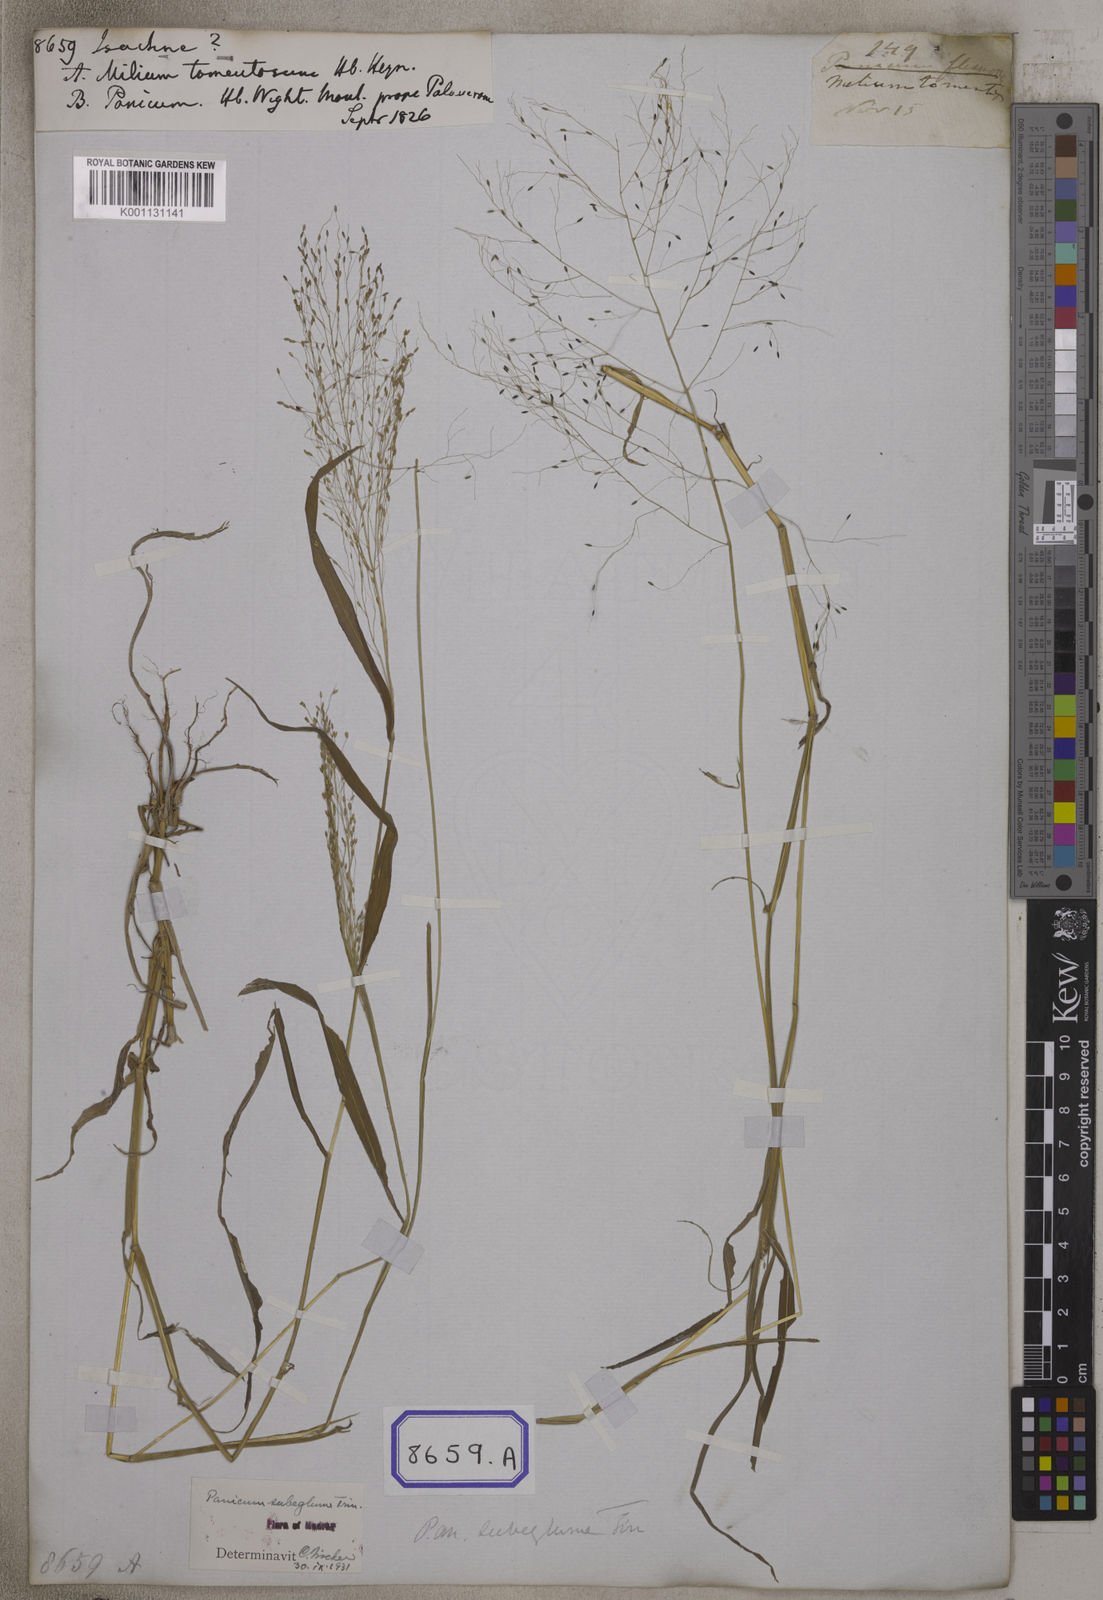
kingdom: Plantae
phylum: Tracheophyta
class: Liliopsida
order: Poales
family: Poaceae
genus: Isachne
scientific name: Isachne
